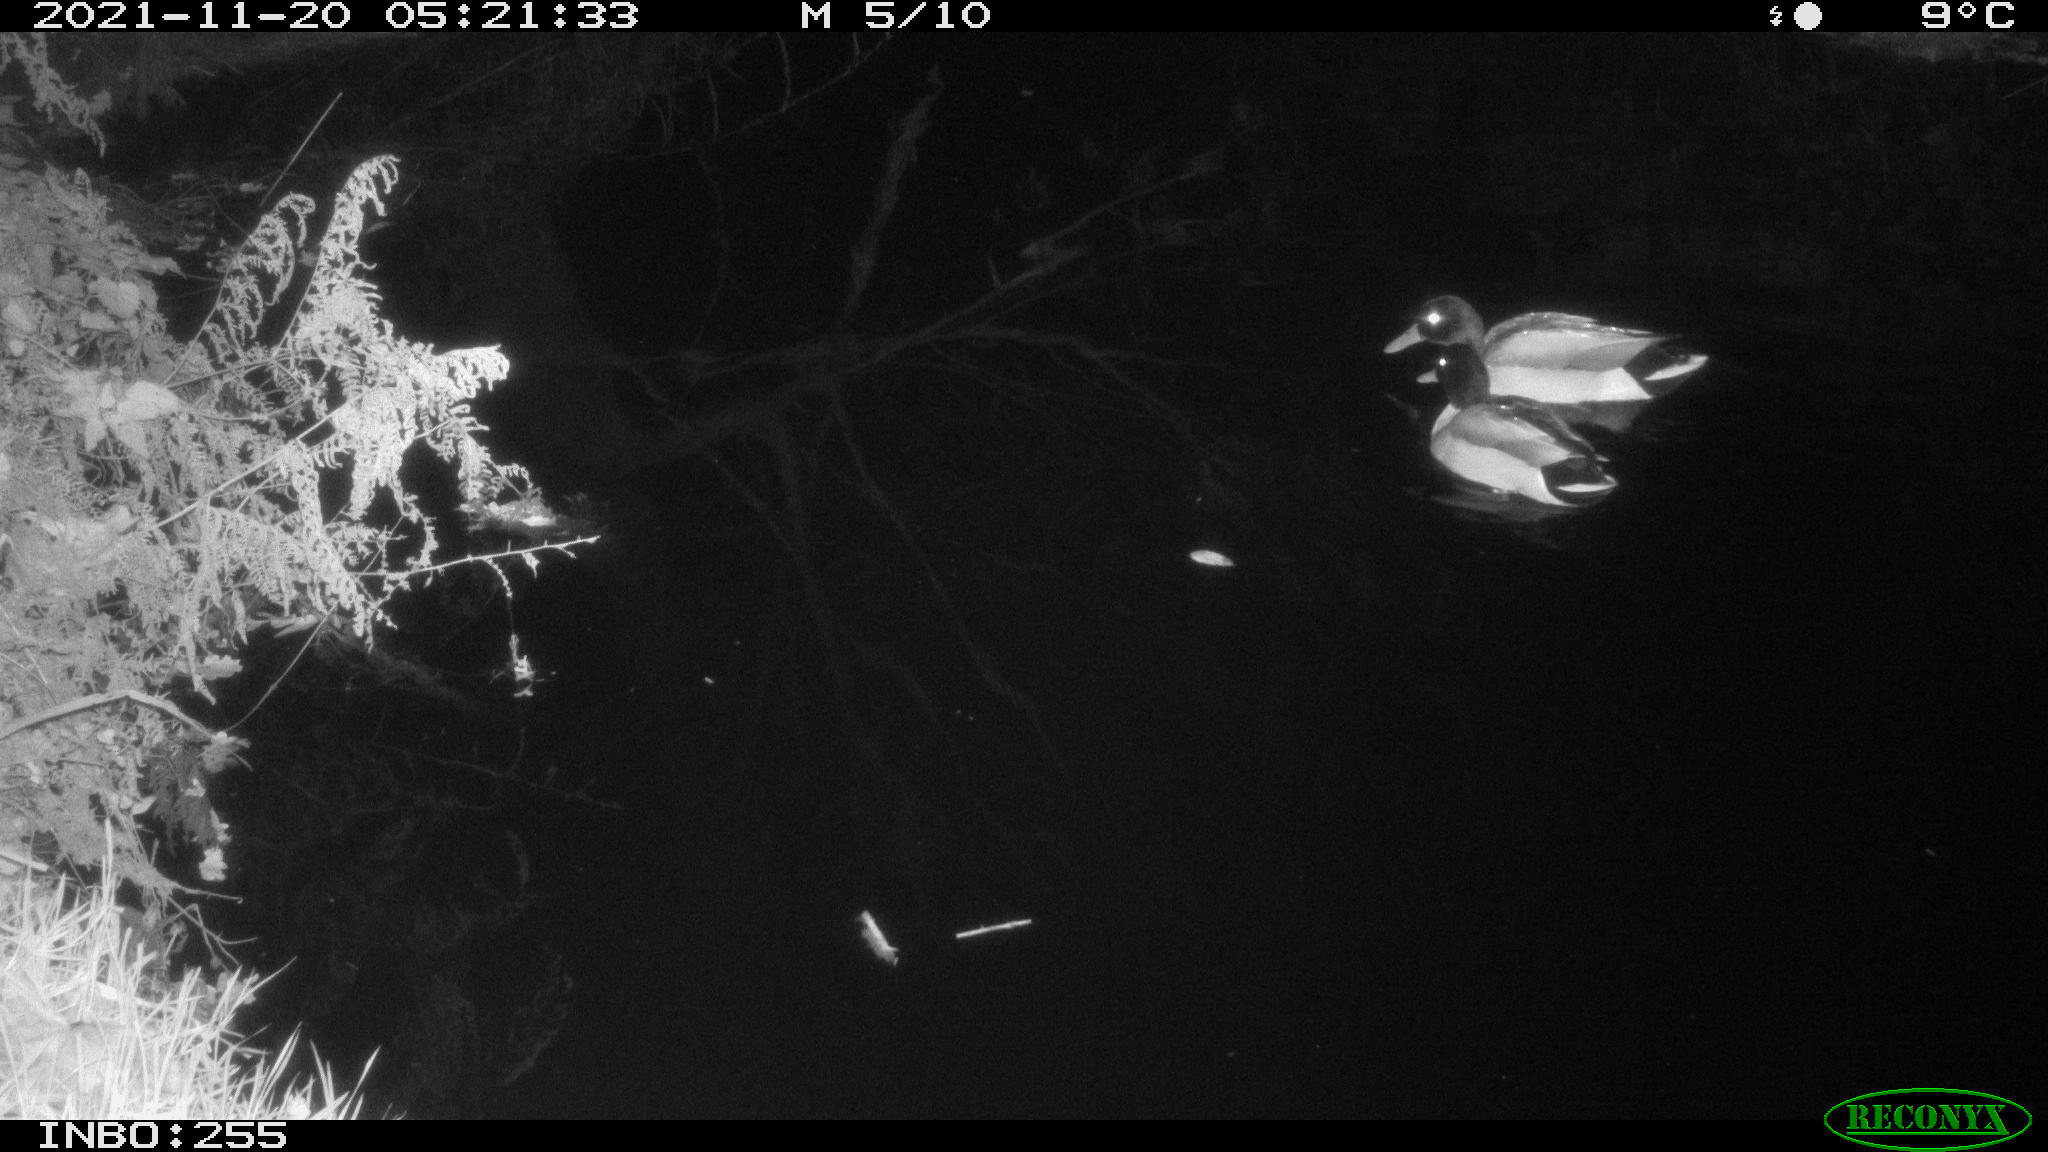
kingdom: Animalia
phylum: Chordata
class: Aves
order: Anseriformes
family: Anatidae
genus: Anas
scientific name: Anas platyrhynchos
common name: Mallard
